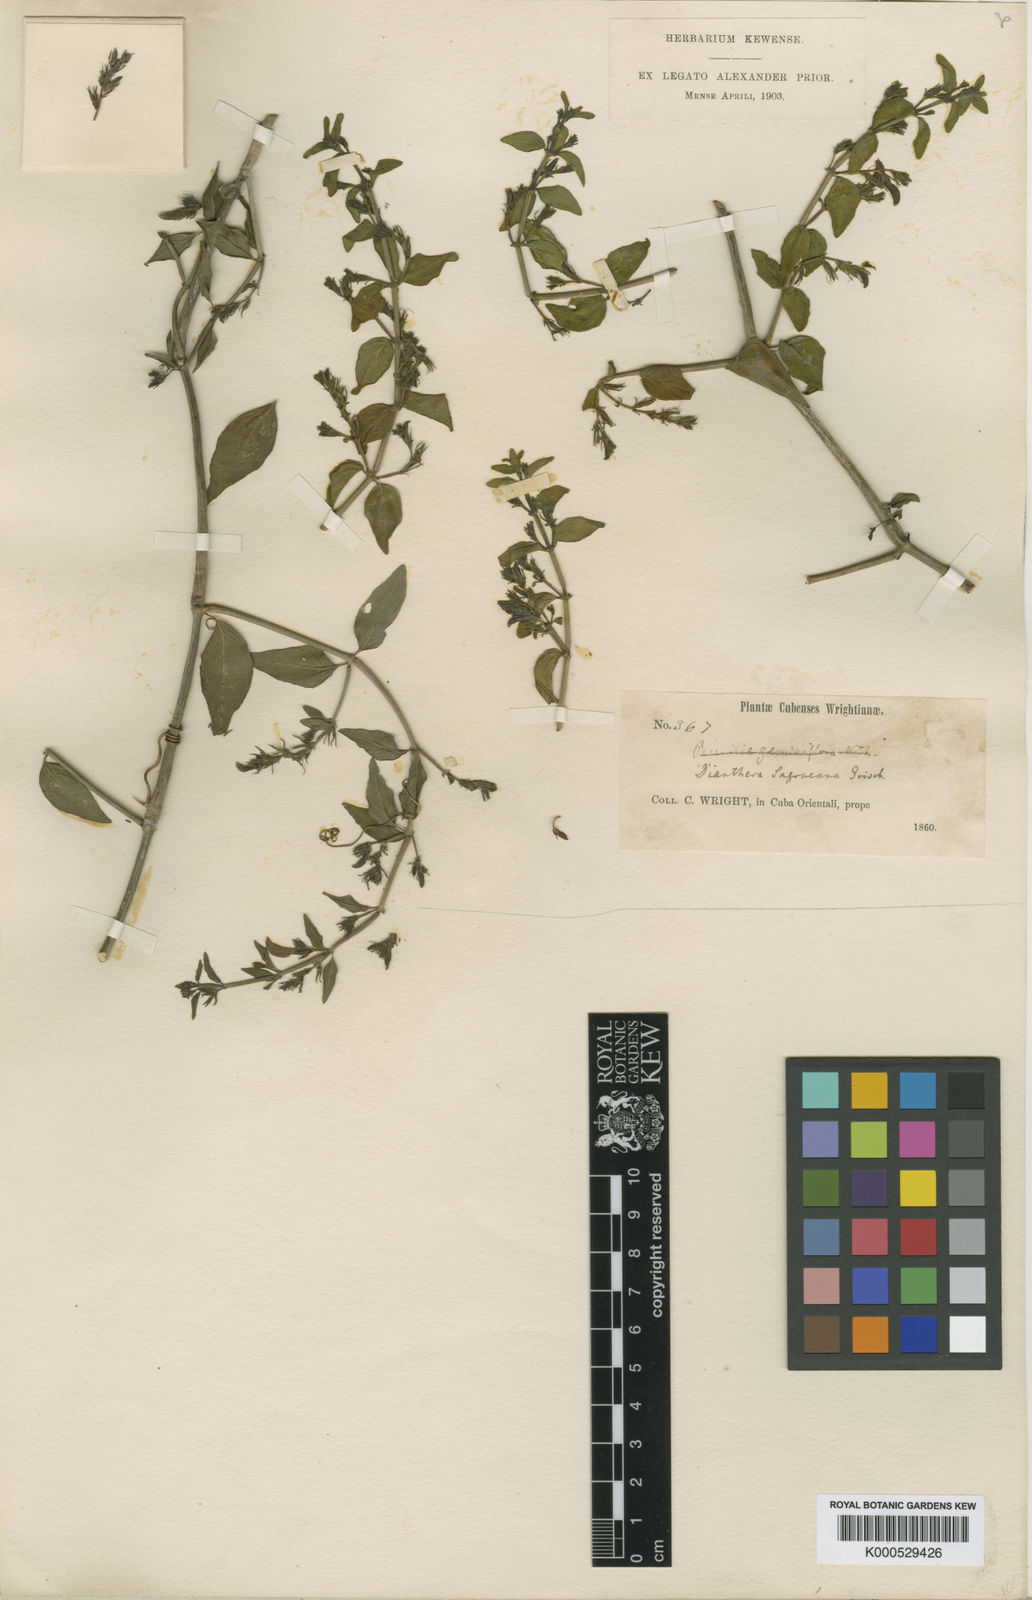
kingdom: Plantae
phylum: Tracheophyta
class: Magnoliopsida
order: Lamiales
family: Acanthaceae
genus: Dianthera
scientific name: Dianthera
